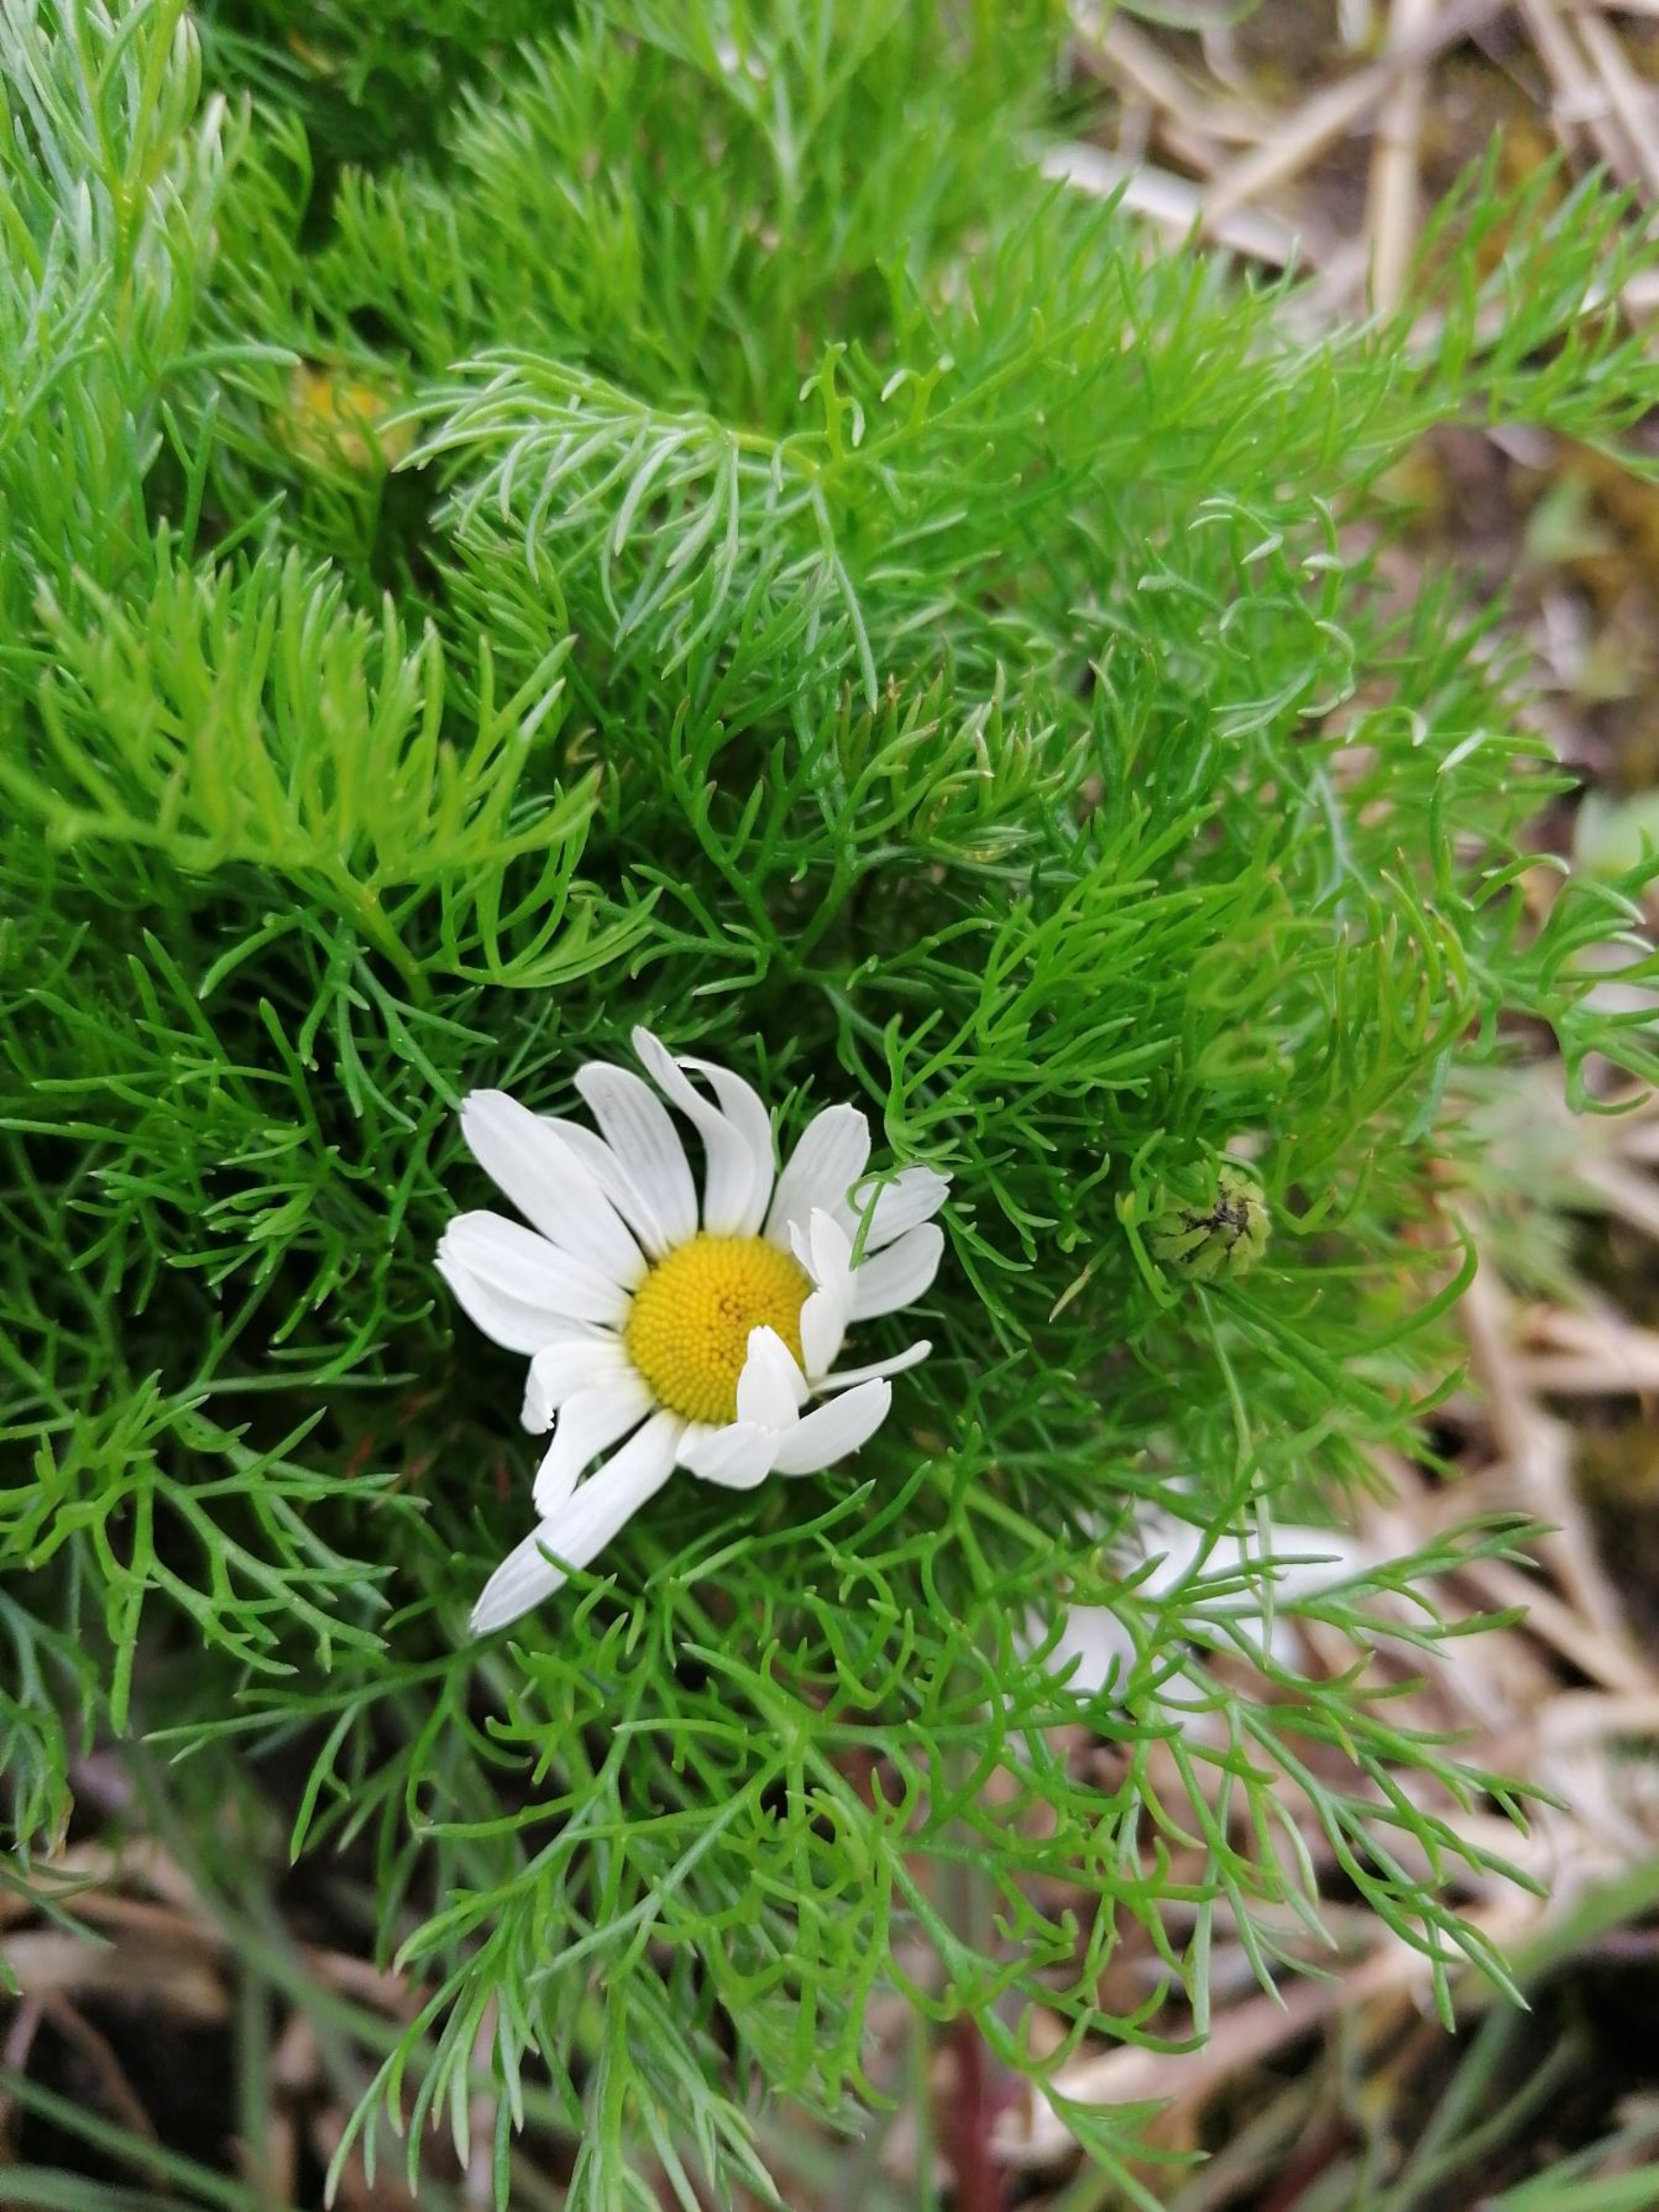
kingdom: Plantae
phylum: Tracheophyta
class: Magnoliopsida
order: Asterales
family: Asteraceae
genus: Tripleurospermum
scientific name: Tripleurospermum inodorum
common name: Lugtløs kamille
